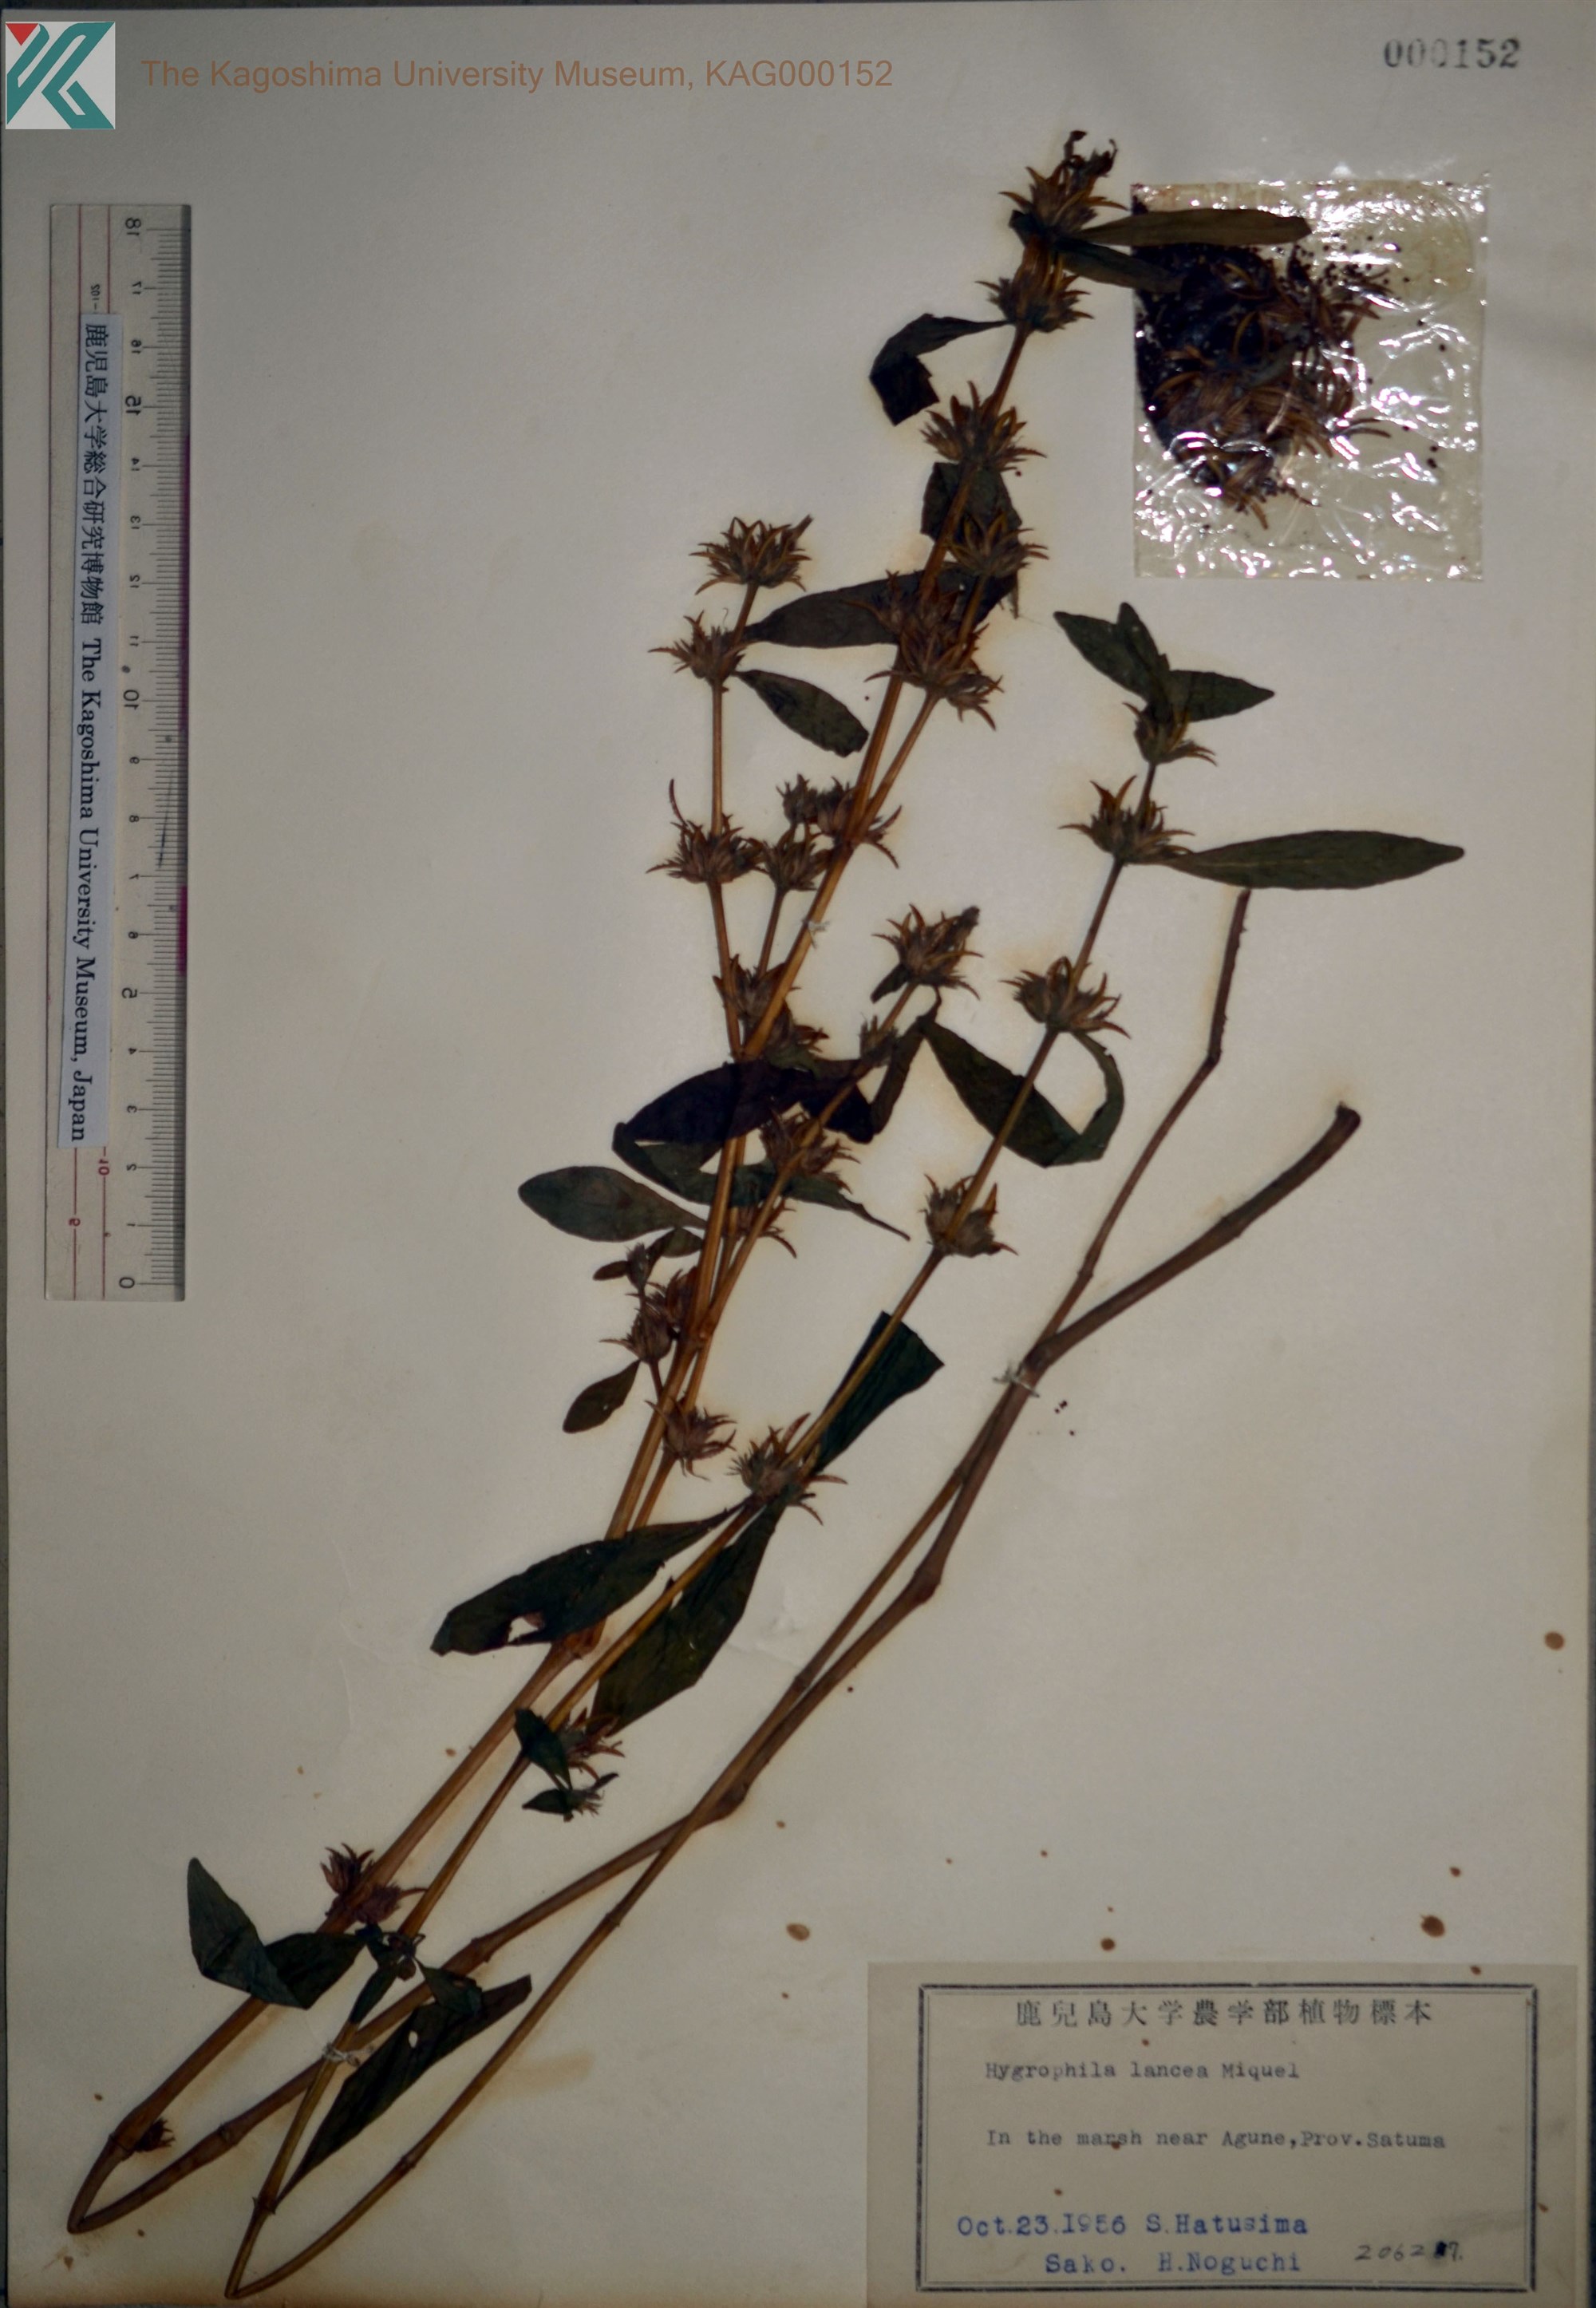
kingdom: Plantae
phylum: Tracheophyta
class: Magnoliopsida
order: Lamiales
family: Acanthaceae
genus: Hygrophila
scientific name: Hygrophila ringens
